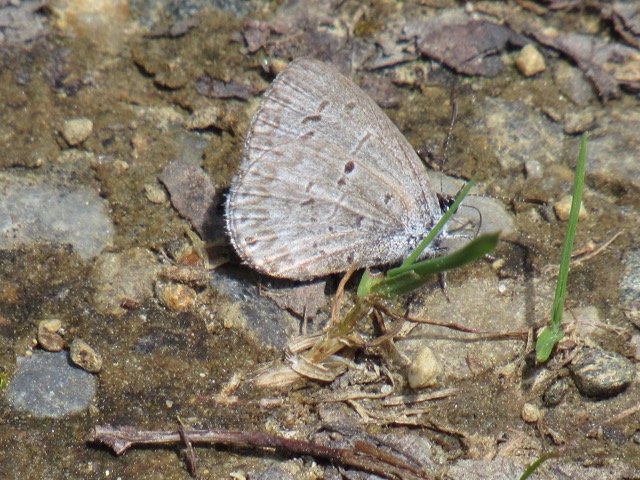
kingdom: Animalia
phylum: Arthropoda
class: Insecta
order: Lepidoptera
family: Lycaenidae
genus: Celastrina
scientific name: Celastrina lucia
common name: Northern Spring Azure
